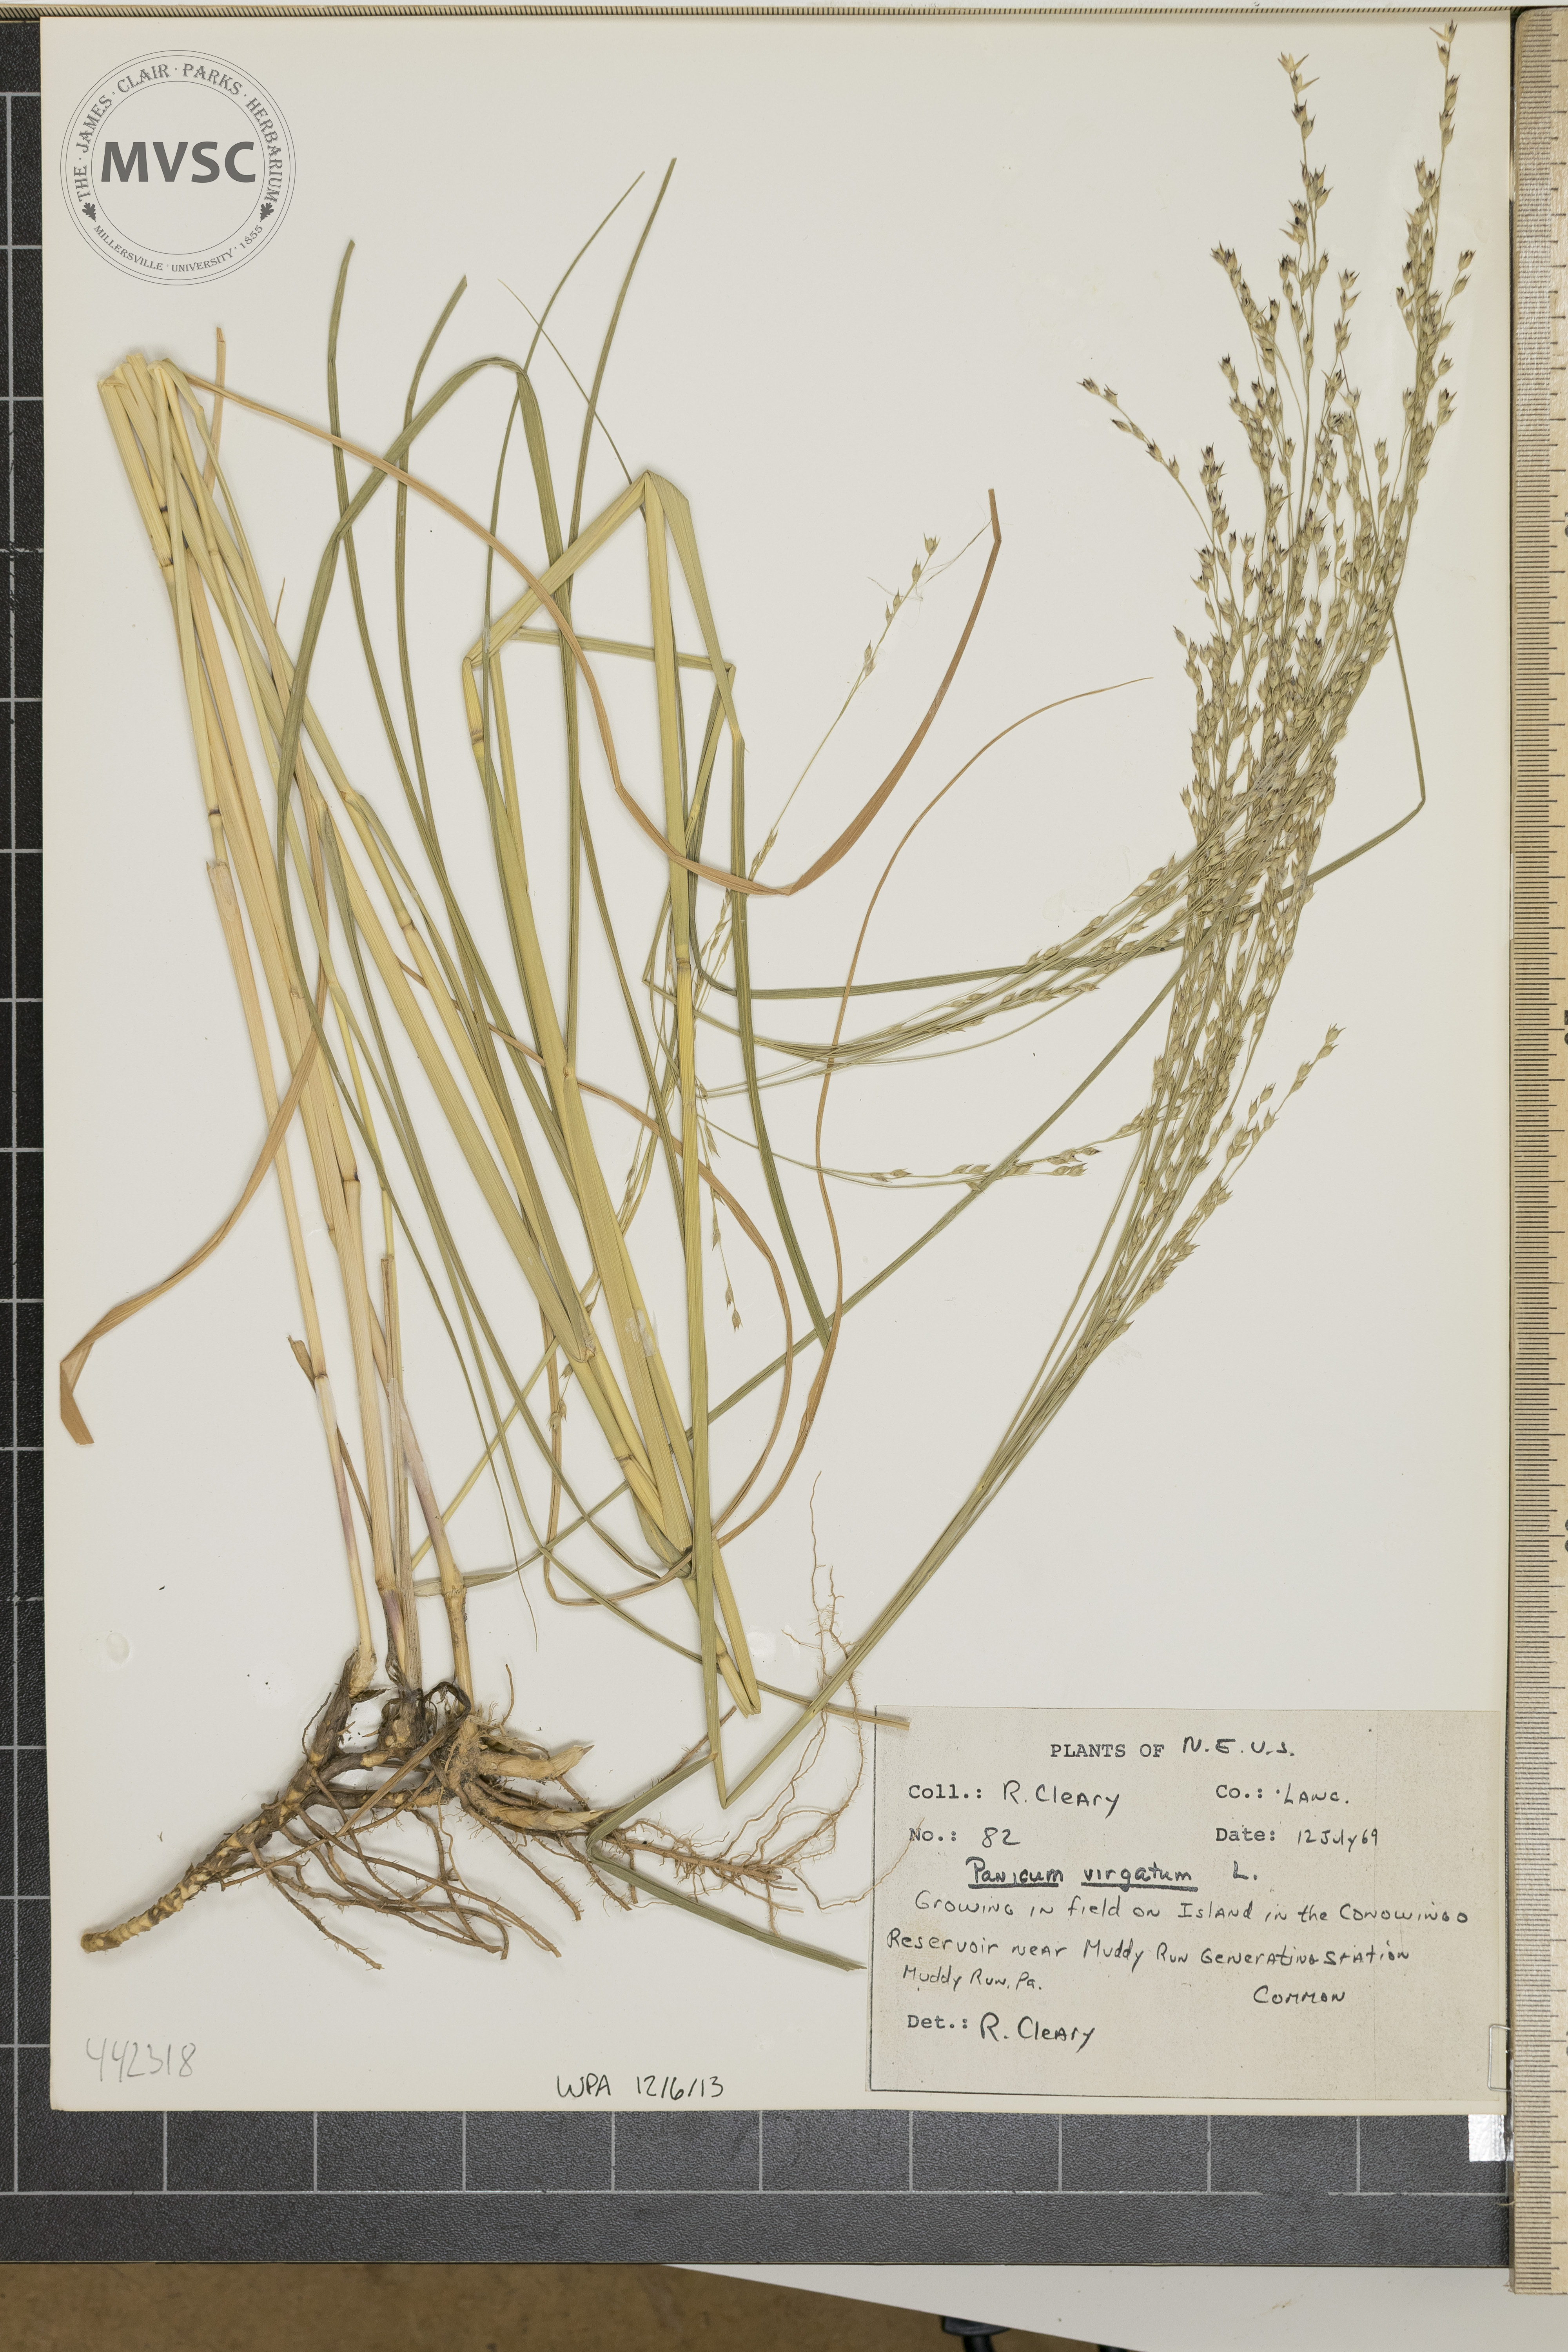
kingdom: Plantae
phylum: Tracheophyta
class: Liliopsida
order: Poales
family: Poaceae
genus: Panicum
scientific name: Panicum virgatum
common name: Switchgrass
